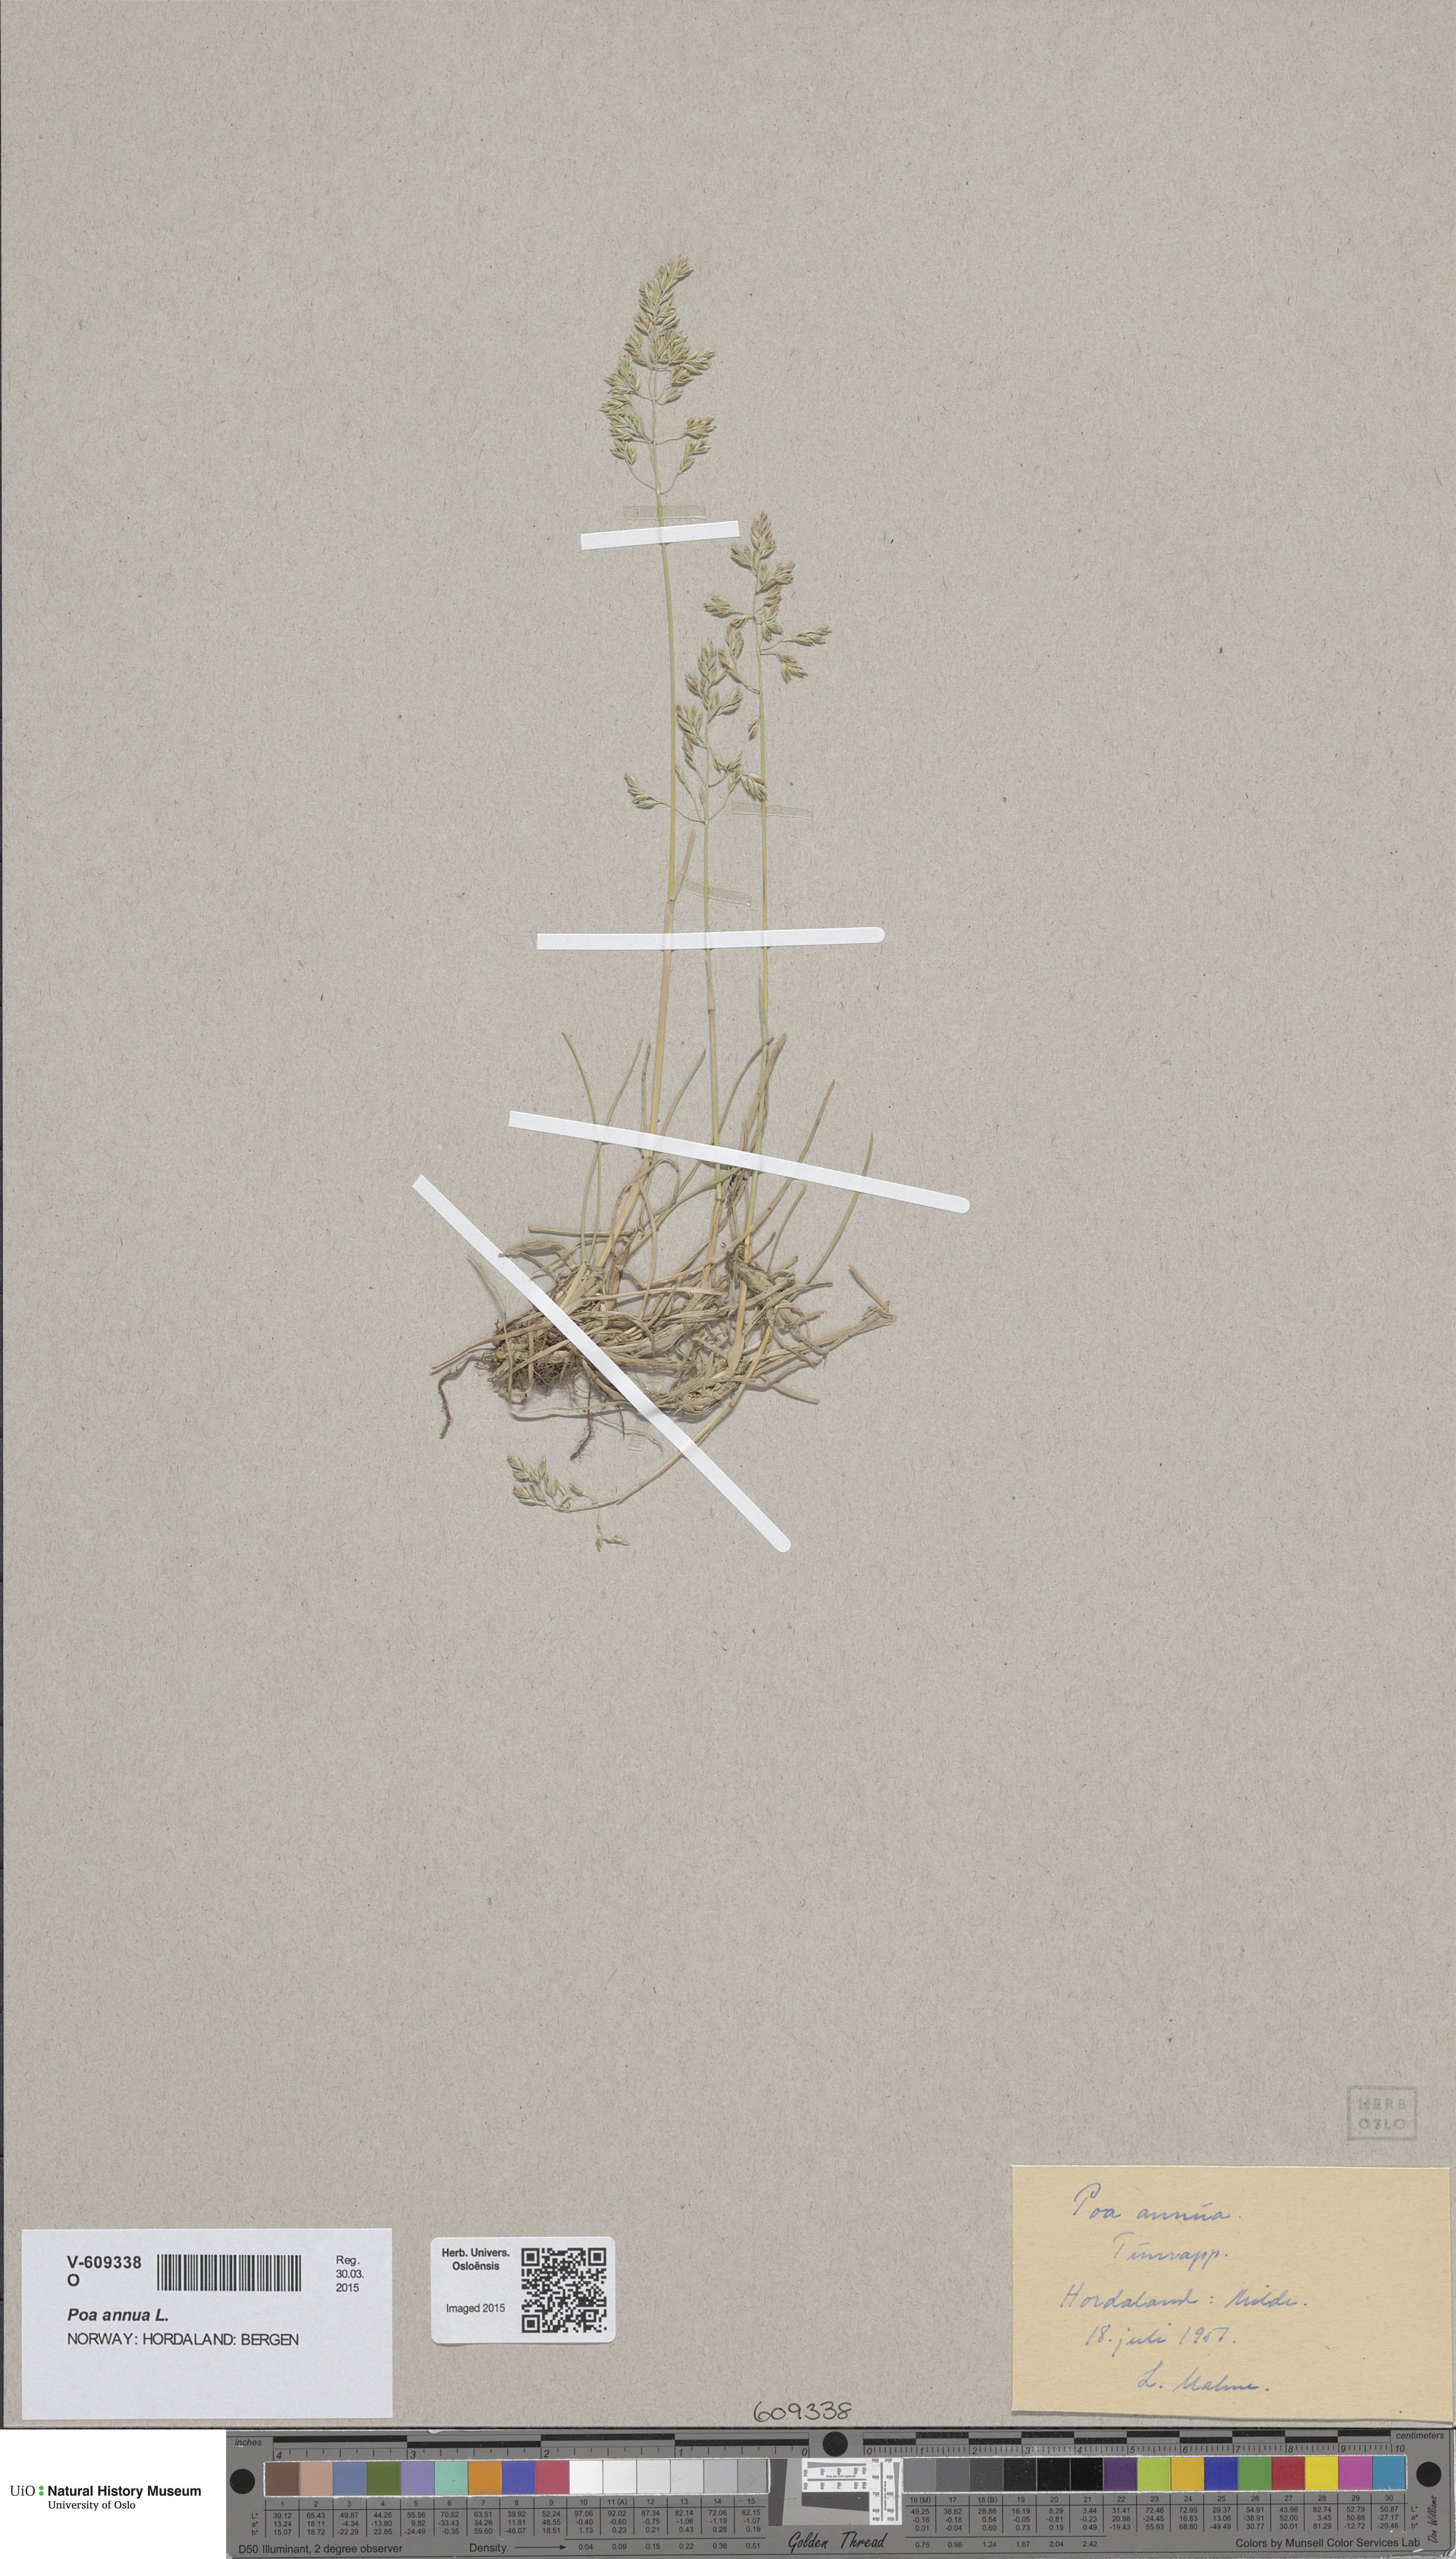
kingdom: Plantae
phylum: Tracheophyta
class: Liliopsida
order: Poales
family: Poaceae
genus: Poa
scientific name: Poa humilis
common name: Spreading meadow-grass
